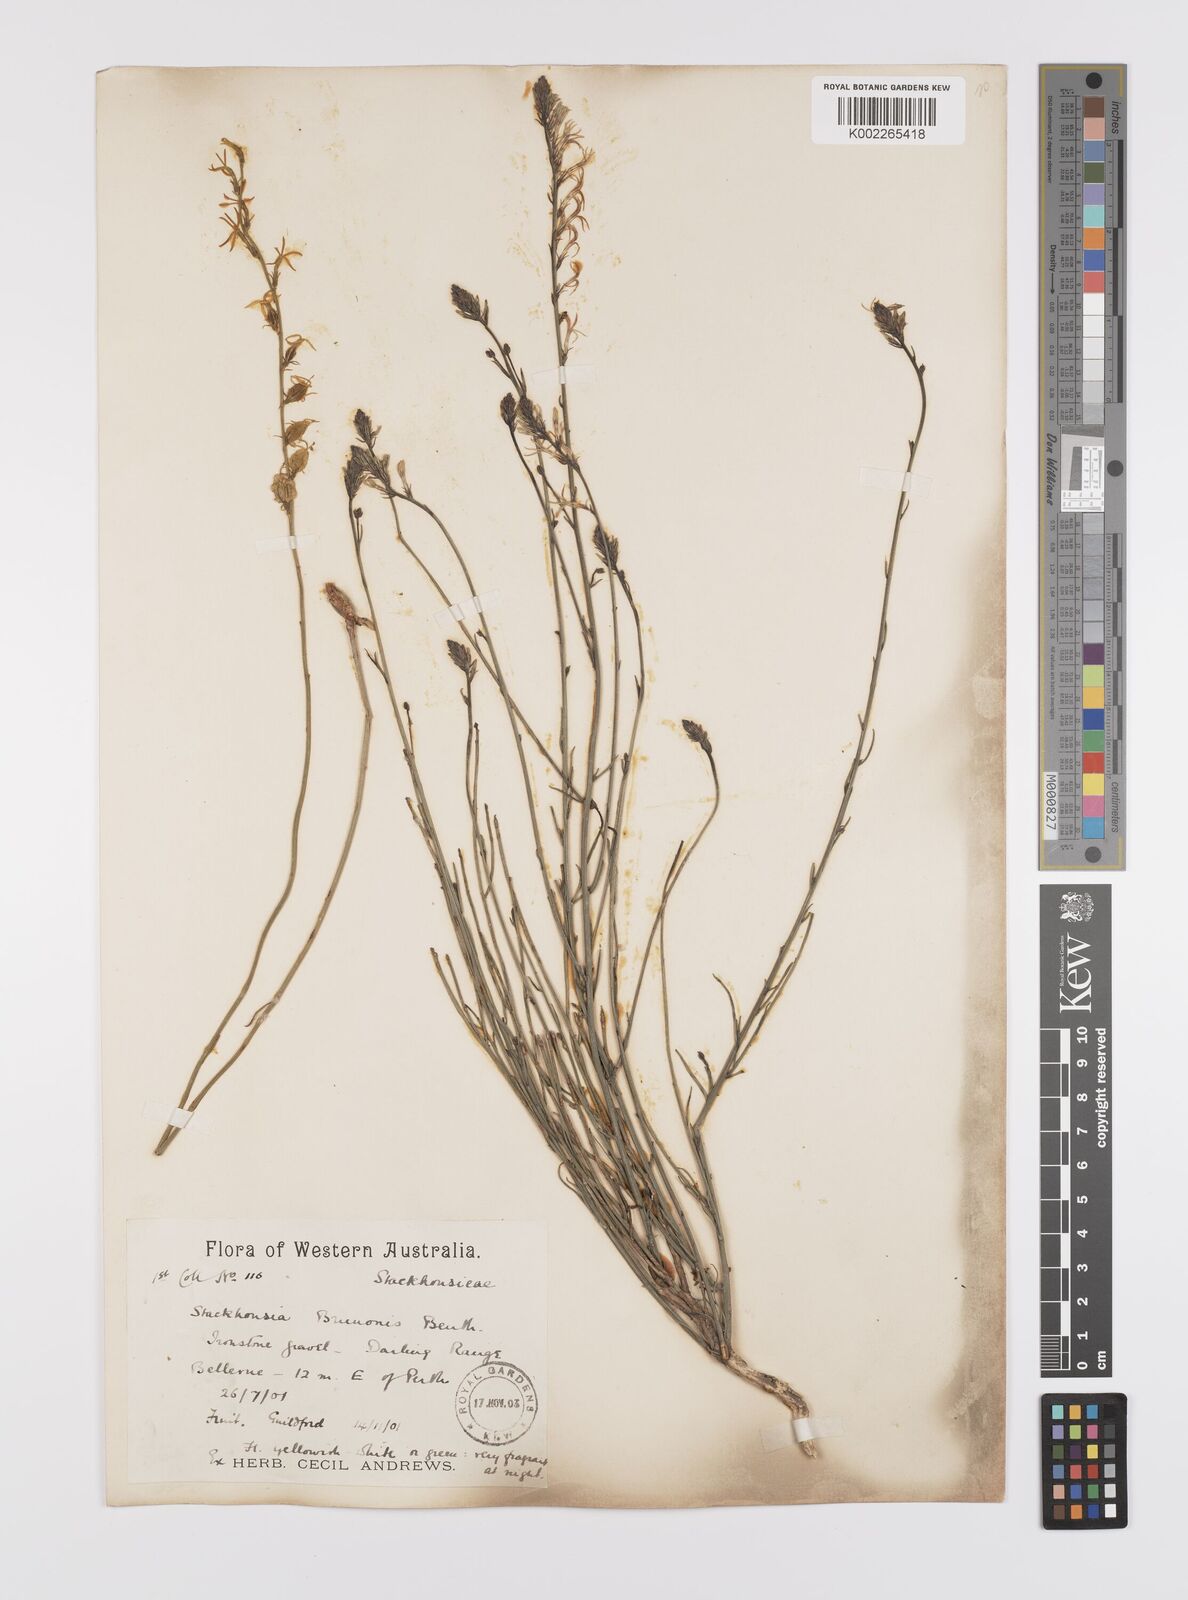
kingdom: Plantae
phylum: Tracheophyta
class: Magnoliopsida
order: Celastrales
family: Celastraceae
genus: Tripterococcus
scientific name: Tripterococcus brunonis
